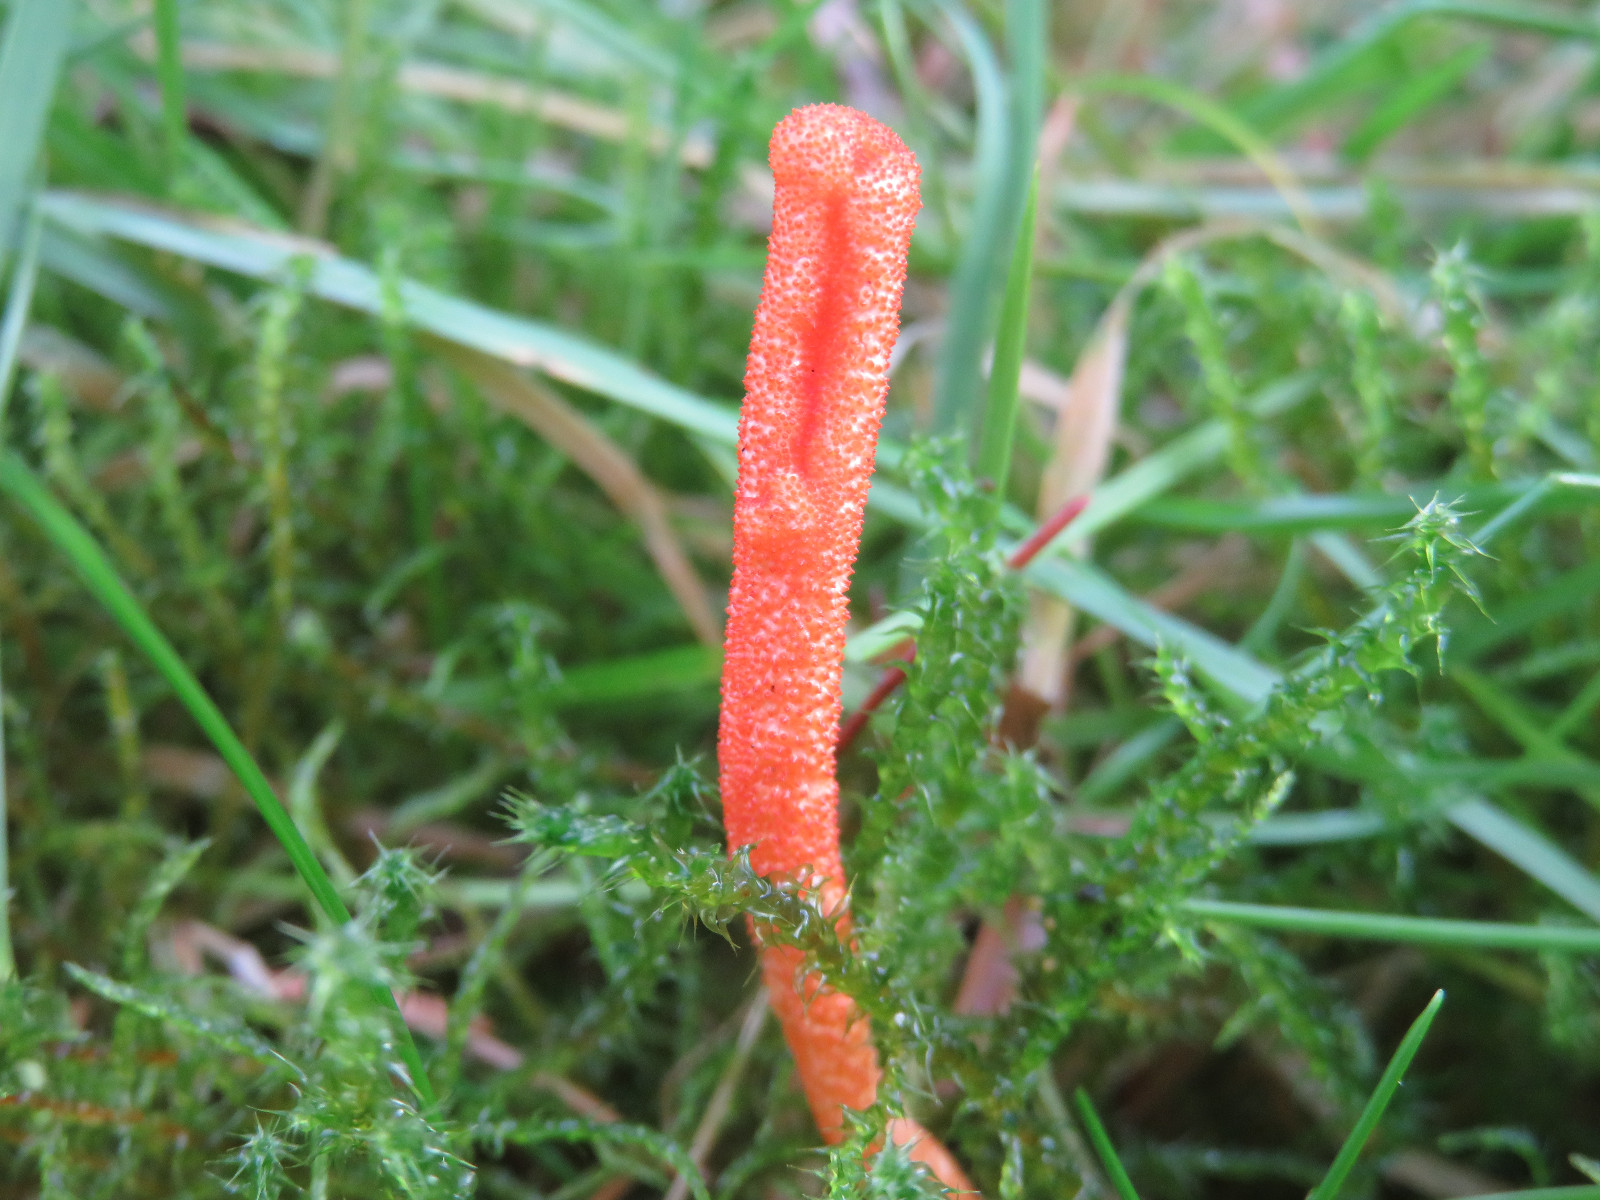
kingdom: Fungi
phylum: Ascomycota
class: Sordariomycetes
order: Hypocreales
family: Cordycipitaceae
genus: Cordyceps
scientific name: Cordyceps militaris
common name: puppe-snyltekølle
